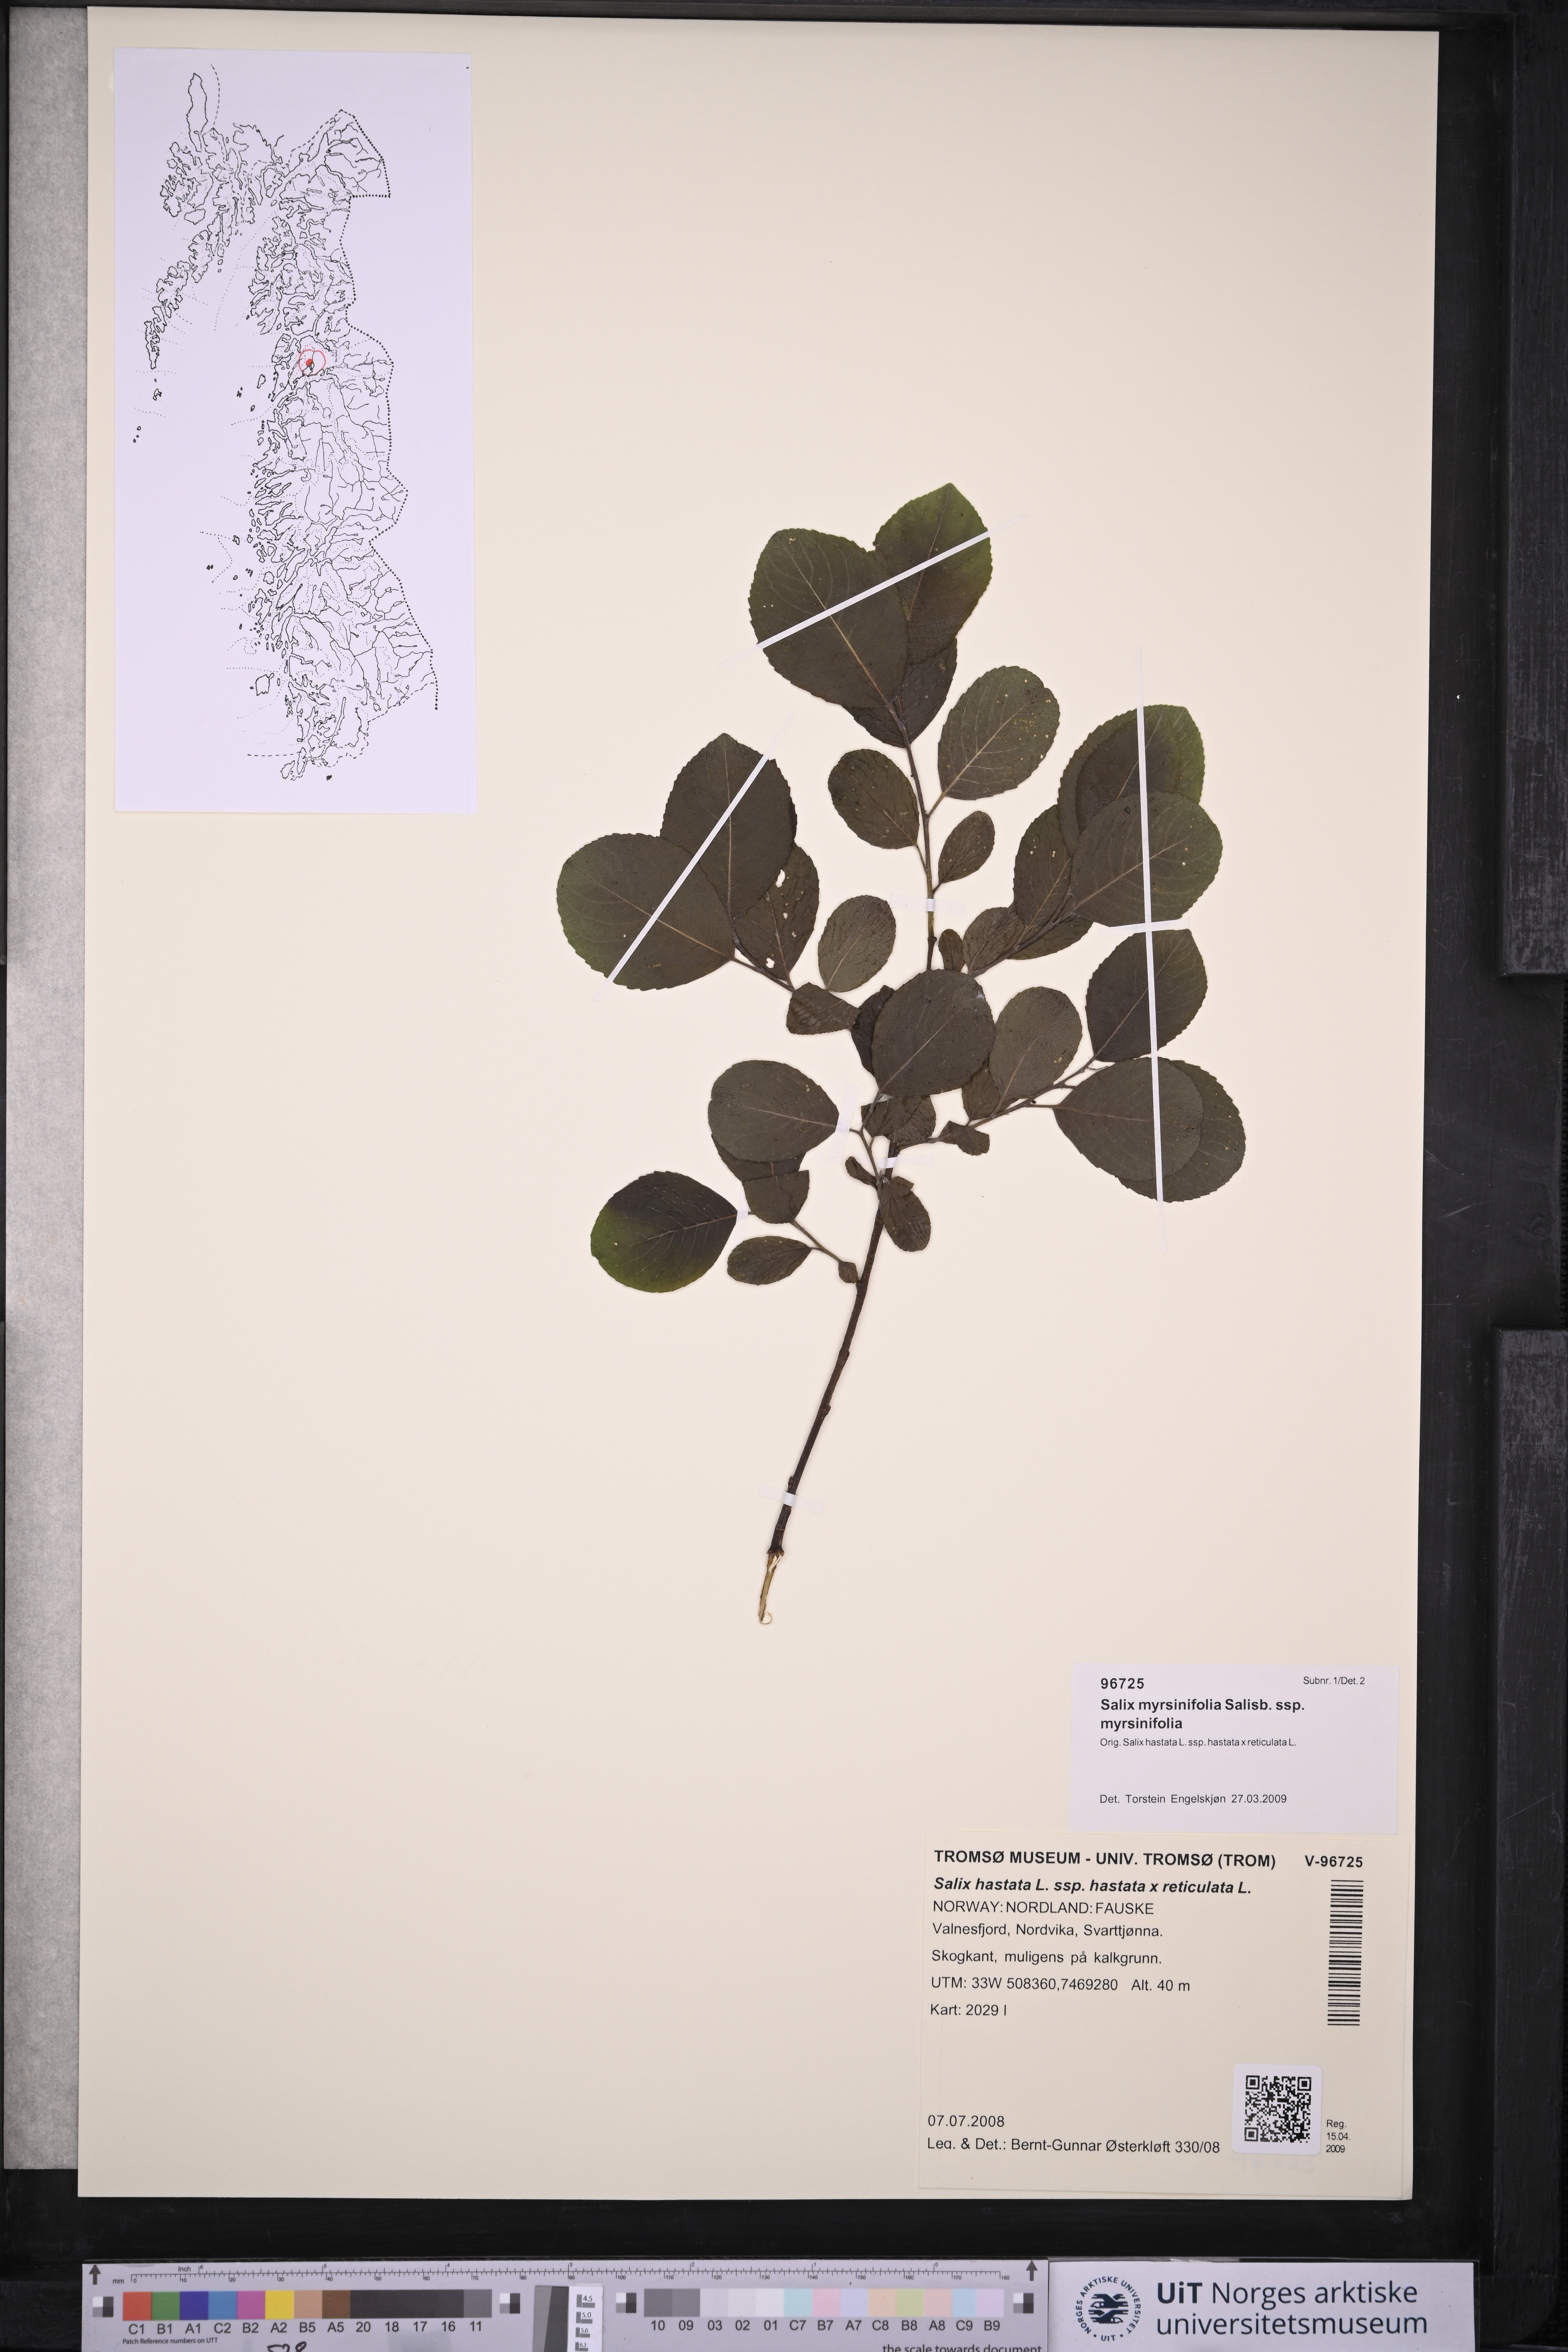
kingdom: Plantae
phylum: Tracheophyta
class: Magnoliopsida
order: Malpighiales
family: Salicaceae
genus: Salix
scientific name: Salix myrsinifolia
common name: Dark-leaved willow
